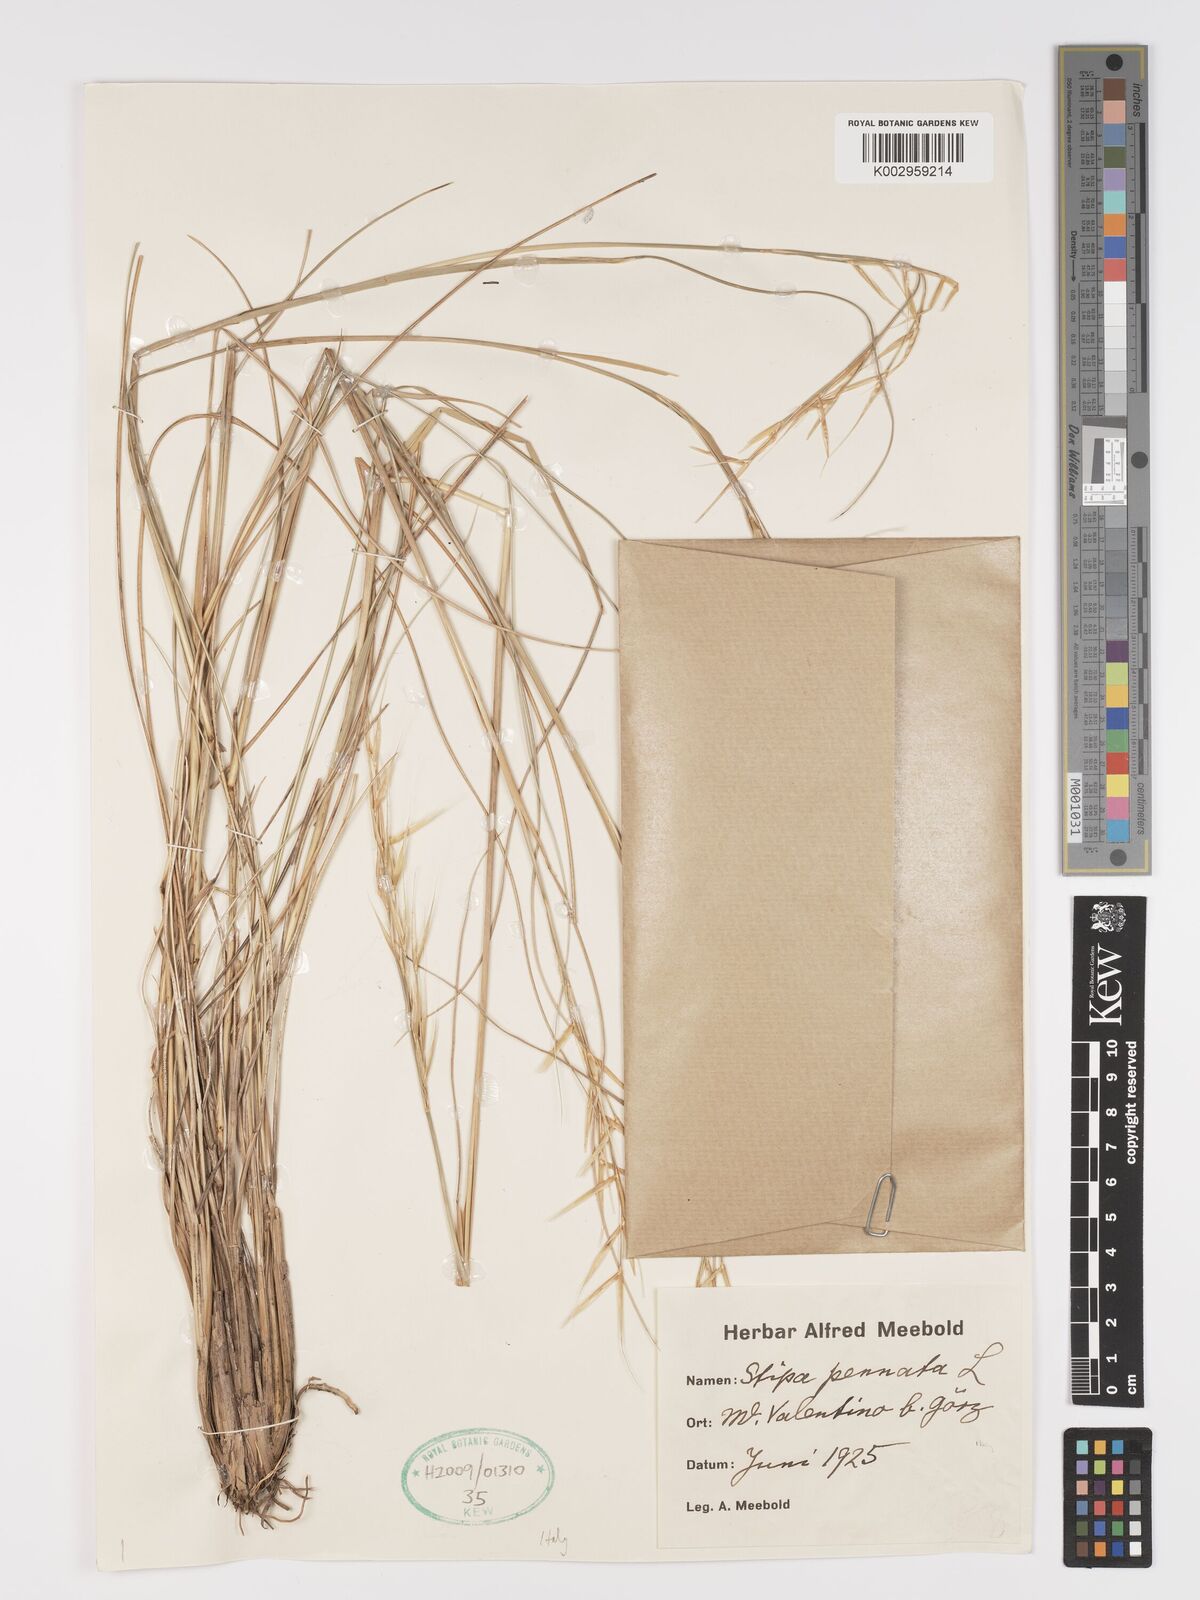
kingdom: Plantae
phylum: Tracheophyta
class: Liliopsida
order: Poales
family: Poaceae
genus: Stipa
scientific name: Stipa pennata
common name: European feather grass
